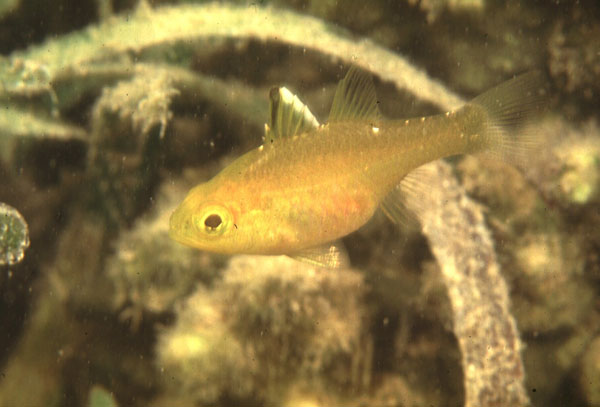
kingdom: Animalia
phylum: Chordata
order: Perciformes
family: Apogonidae
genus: Ostorhinchus
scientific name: Ostorhinchus hoevenii
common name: Flag-fin cardinal
